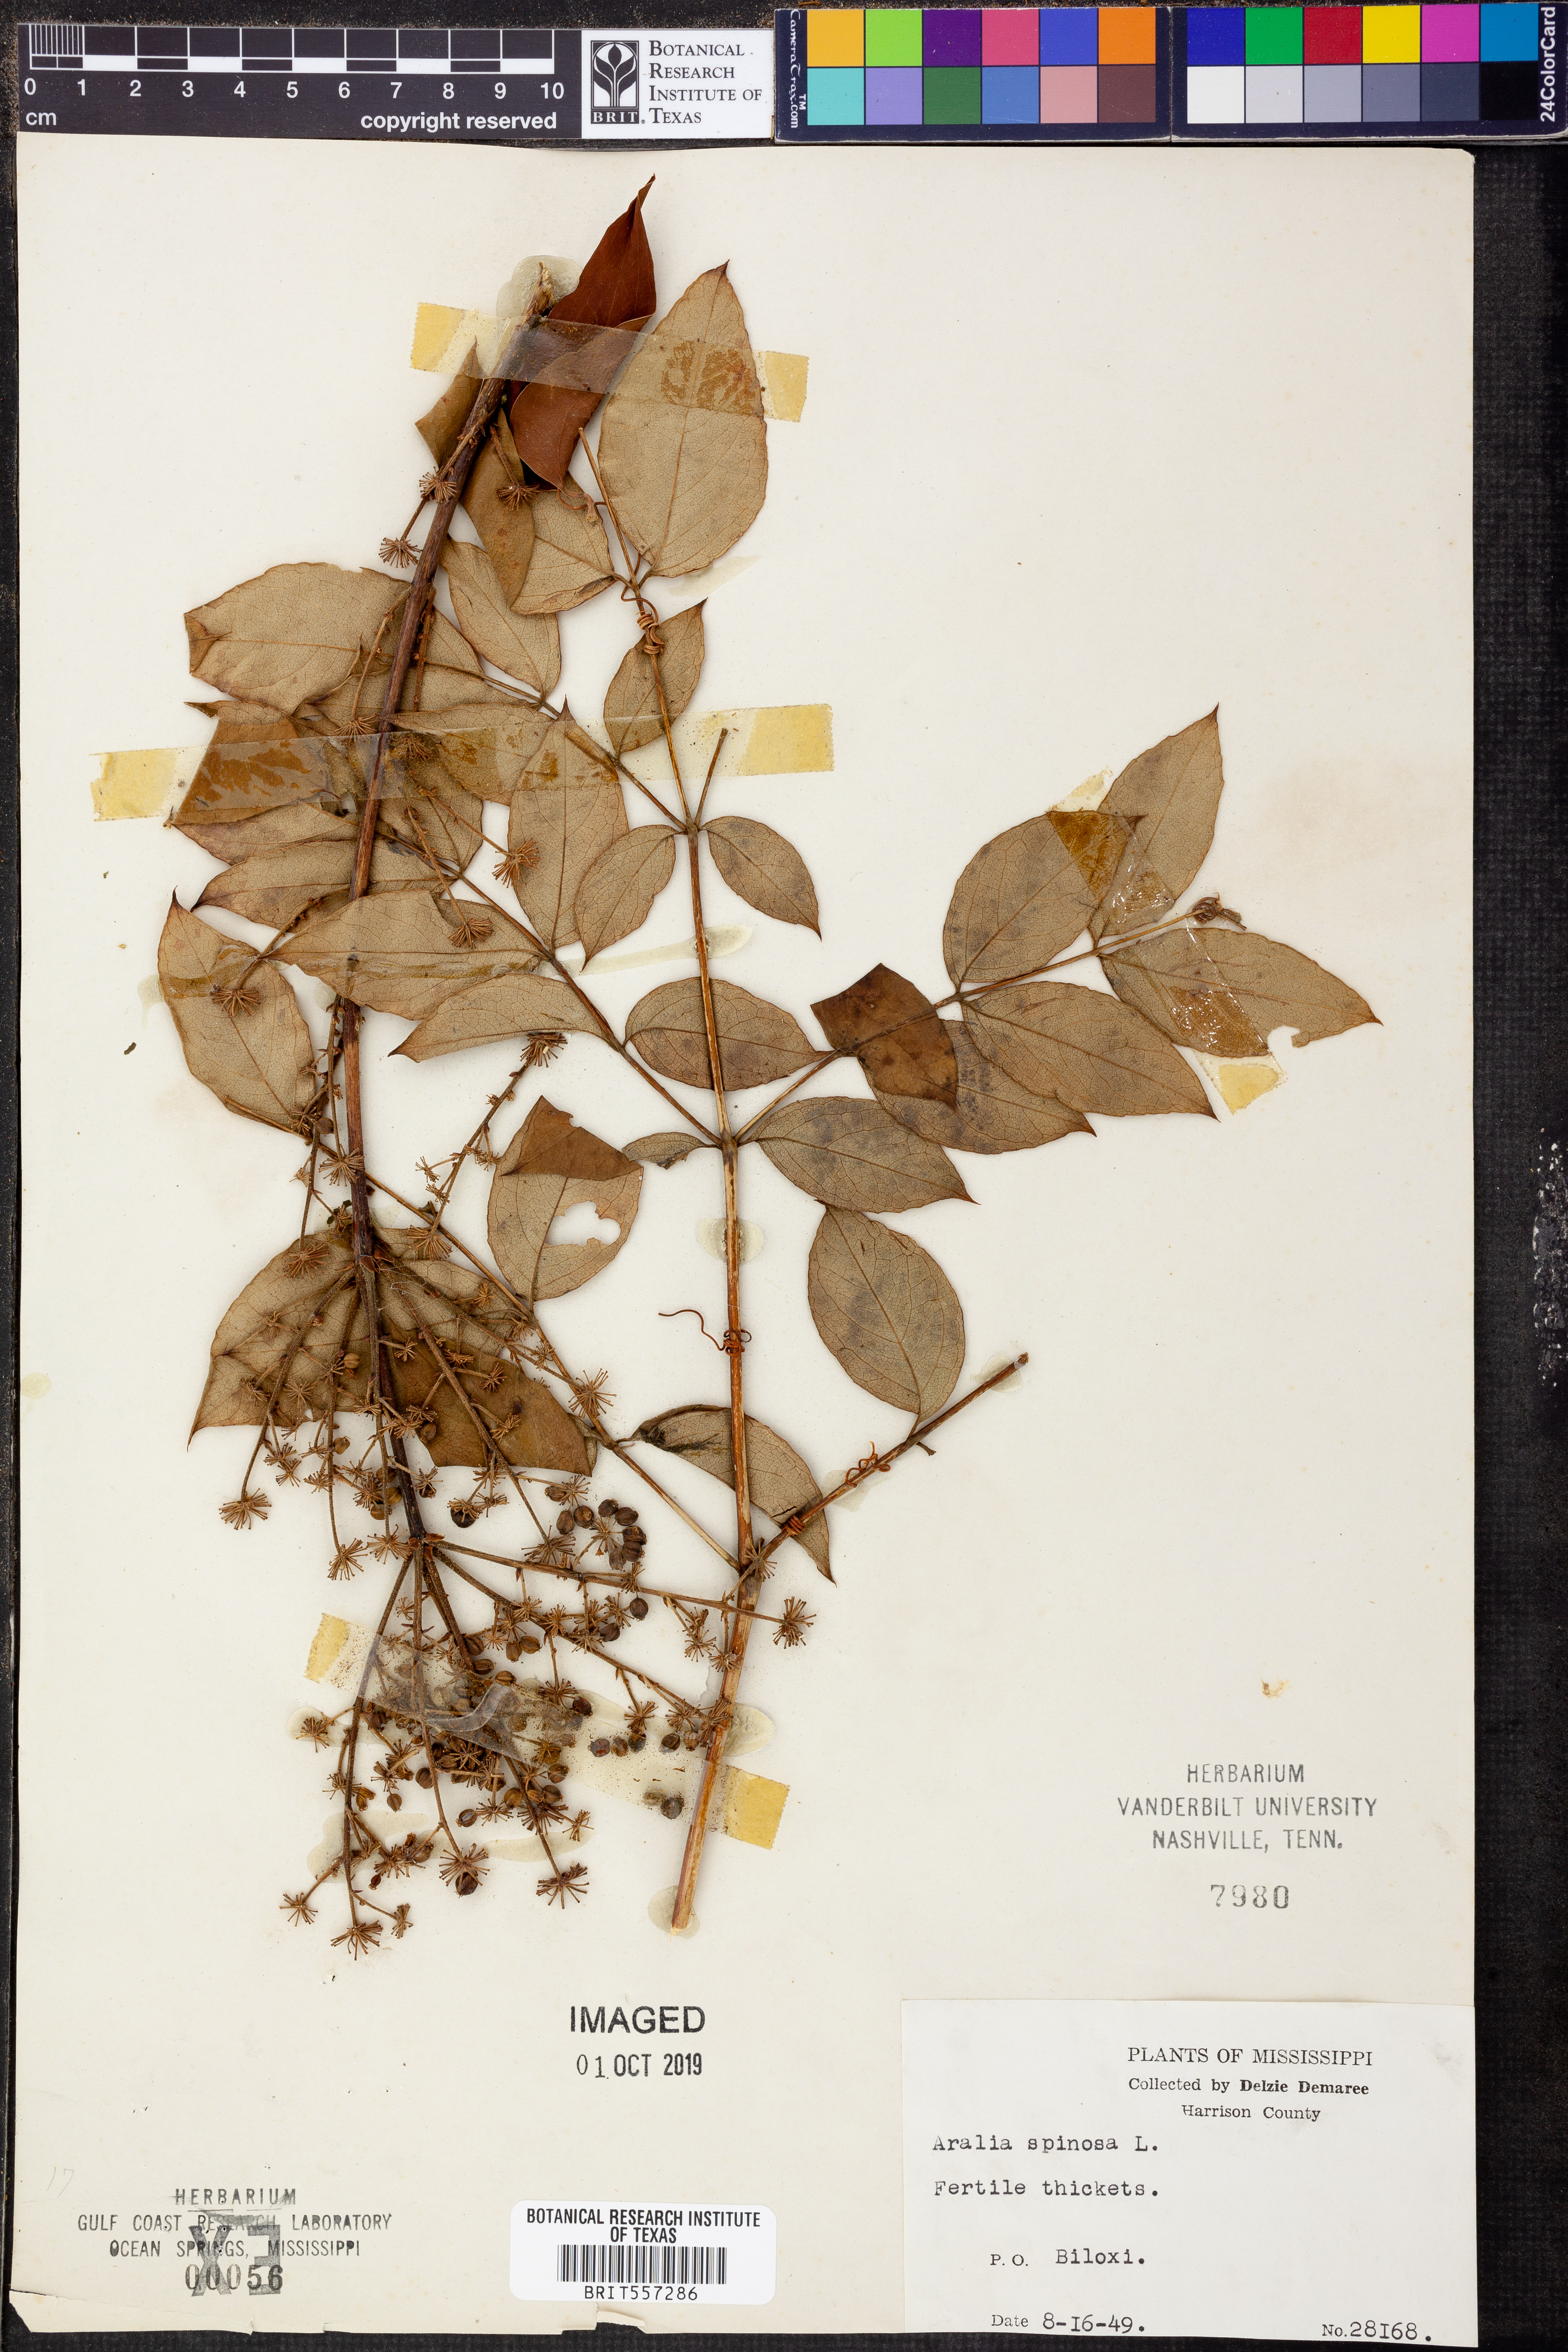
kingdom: Plantae
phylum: Tracheophyta
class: Magnoliopsida
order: Apiales
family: Araliaceae
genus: Aralia
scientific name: Aralia spinosa
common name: Hercules'-club
